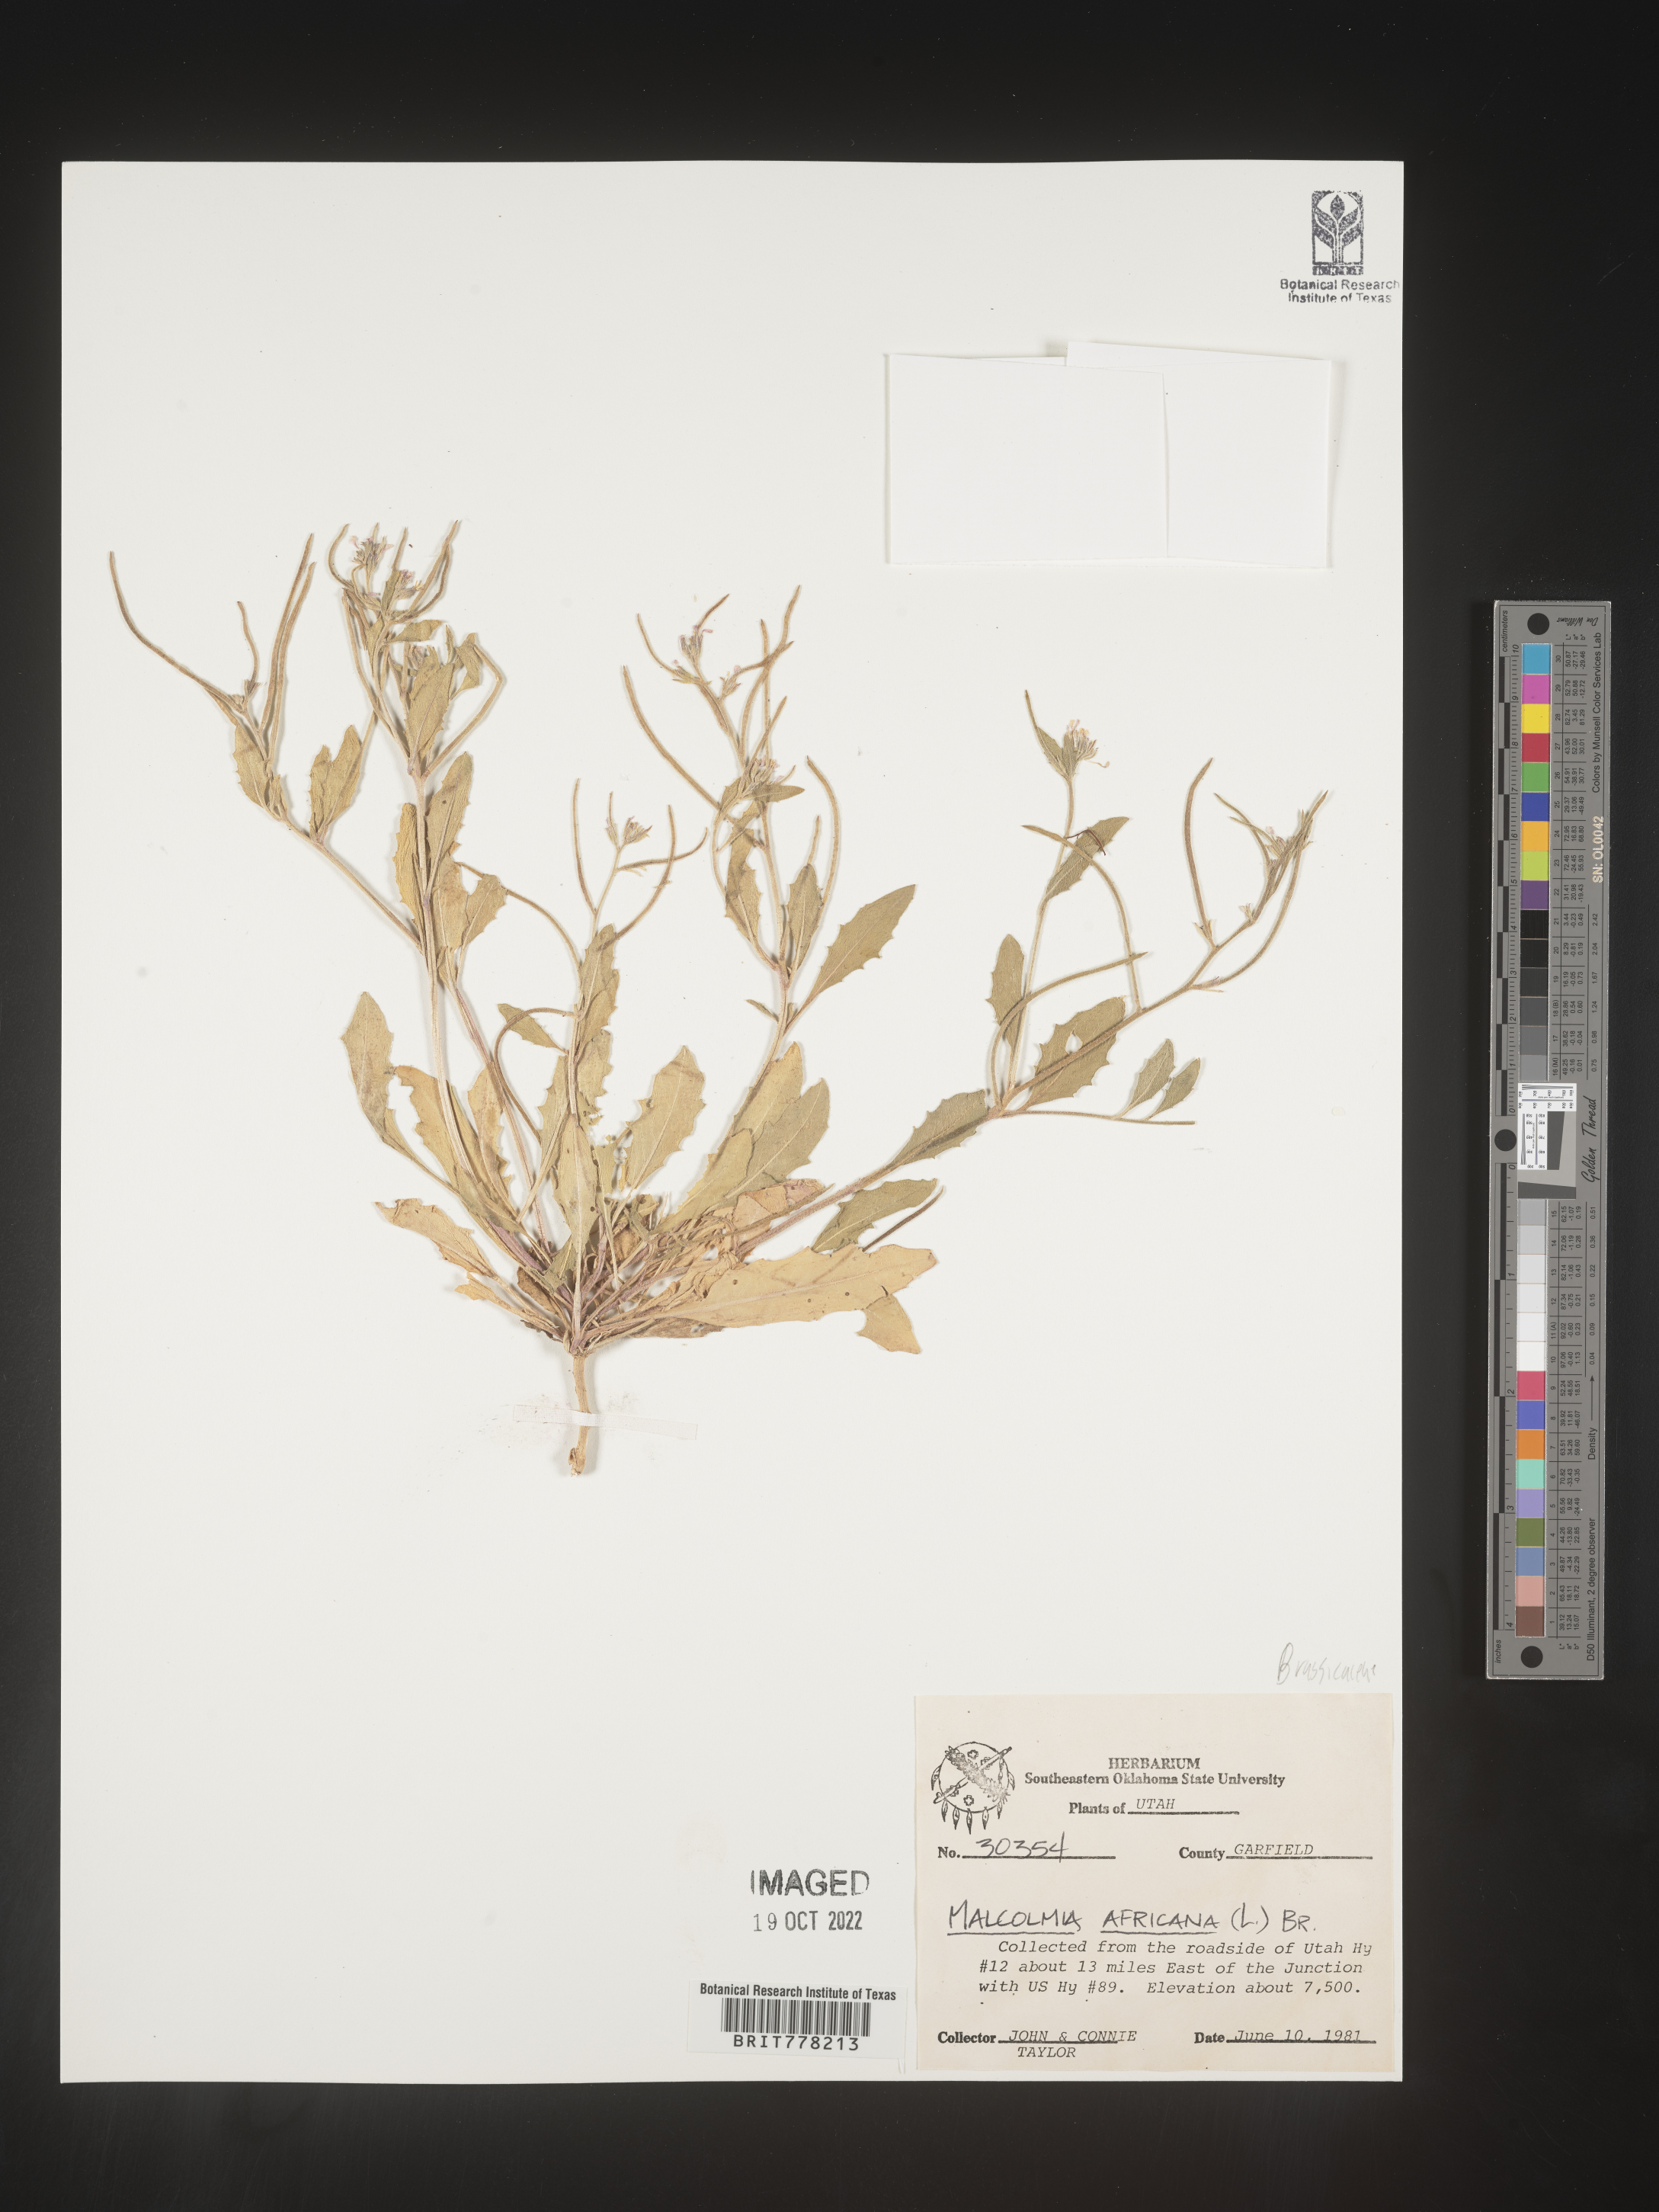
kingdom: Plantae
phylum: Tracheophyta
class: Magnoliopsida
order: Brassicales
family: Brassicaceae
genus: Malcolmia
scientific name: Malcolmia
